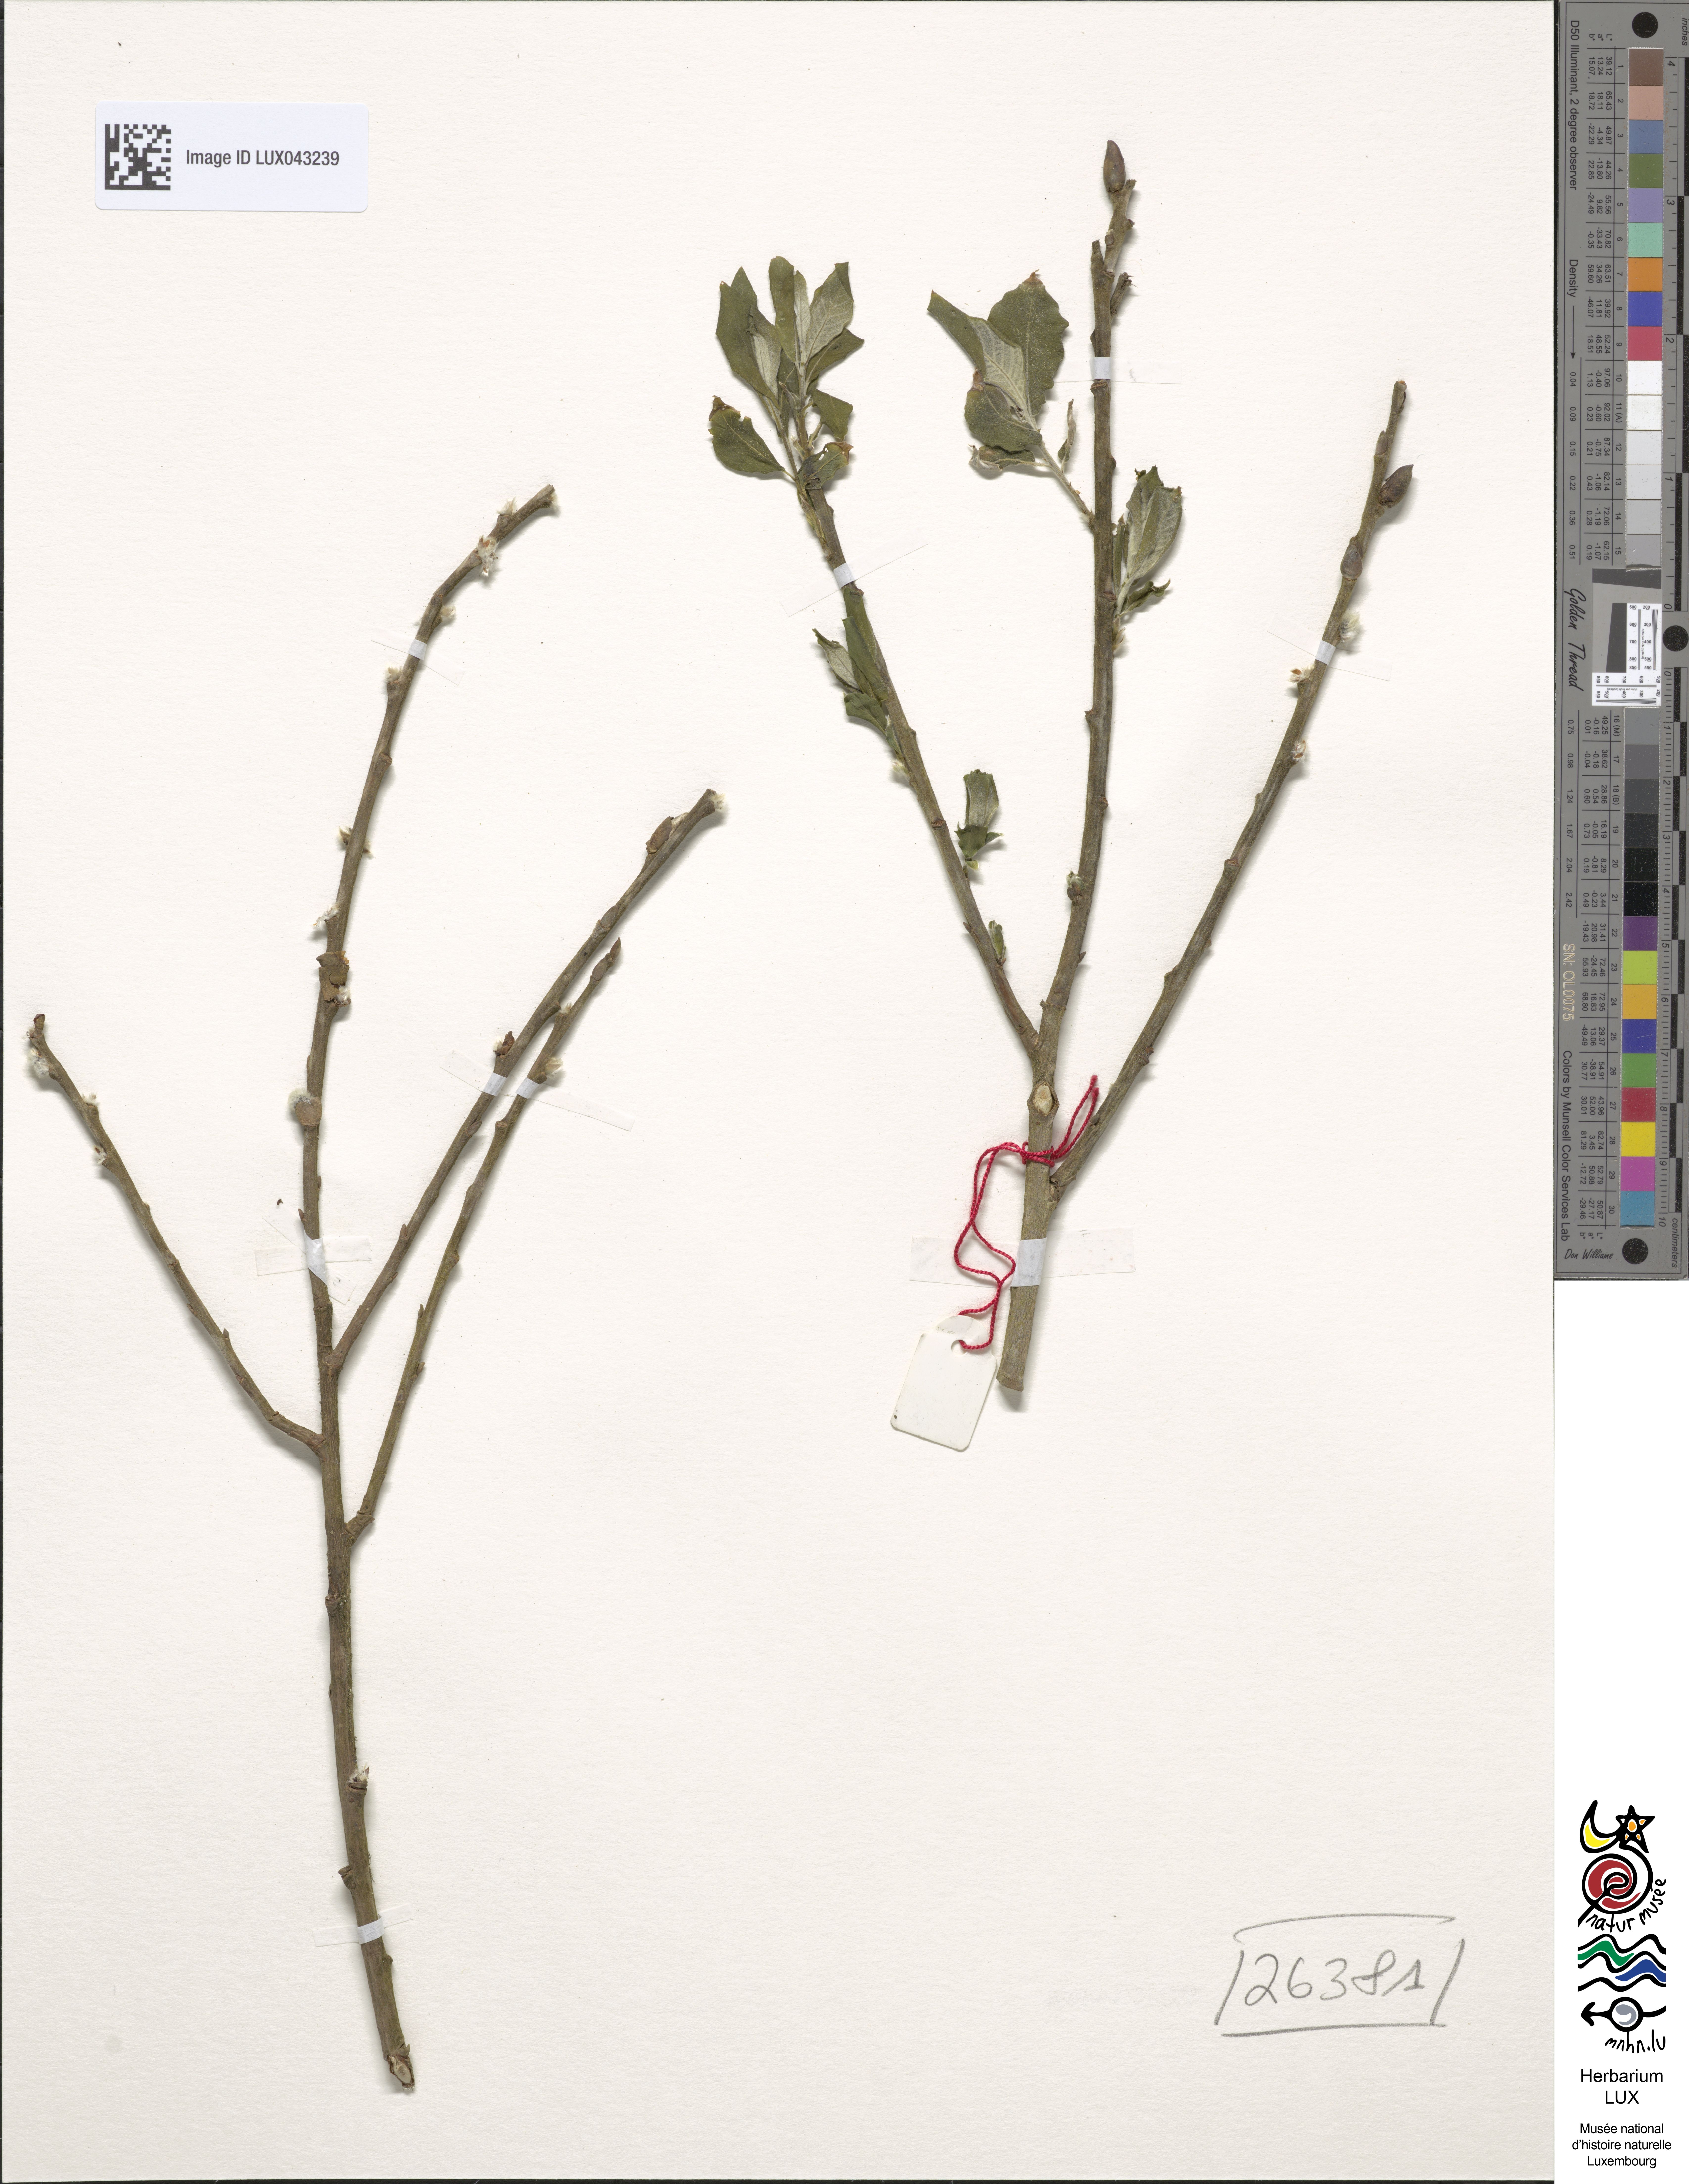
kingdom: Plantae
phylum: Tracheophyta
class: Magnoliopsida
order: Malpighiales
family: Salicaceae
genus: Salix
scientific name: Salix cinerea
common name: Common sallow
